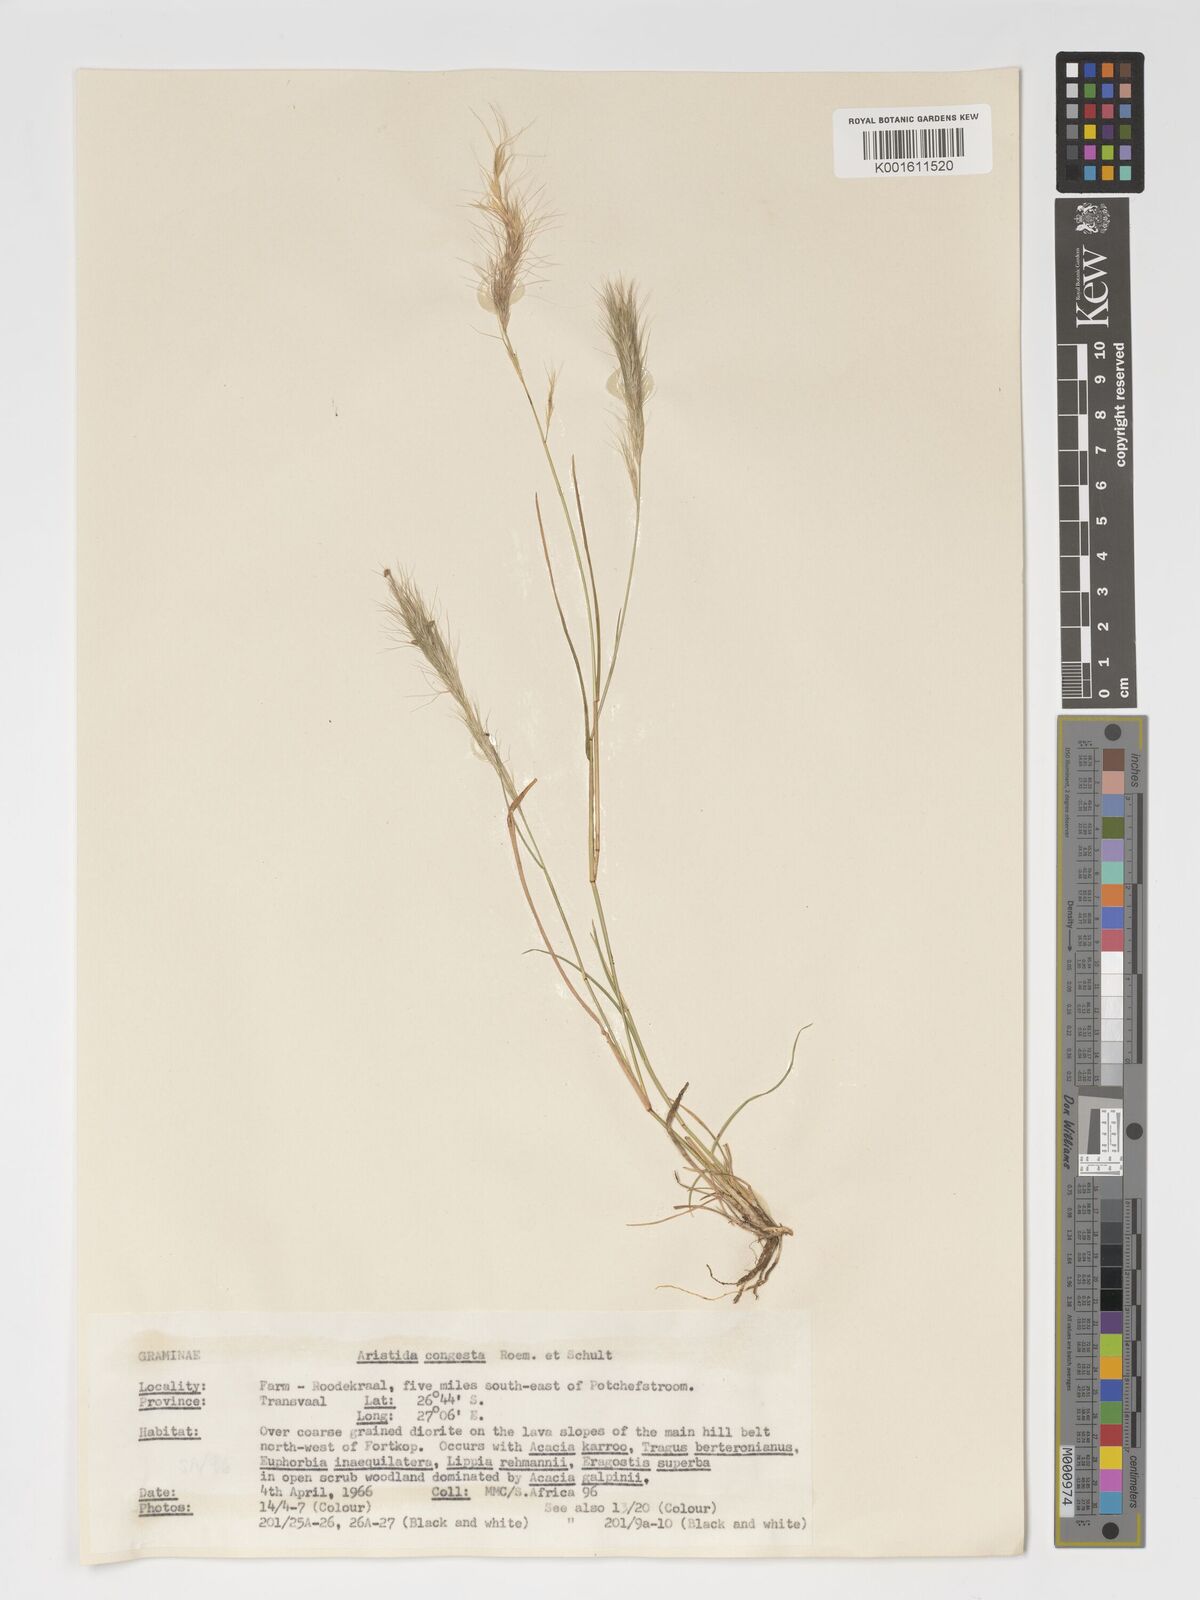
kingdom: Plantae
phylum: Tracheophyta
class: Liliopsida
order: Poales
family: Poaceae
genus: Aristida
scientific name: Aristida congesta
